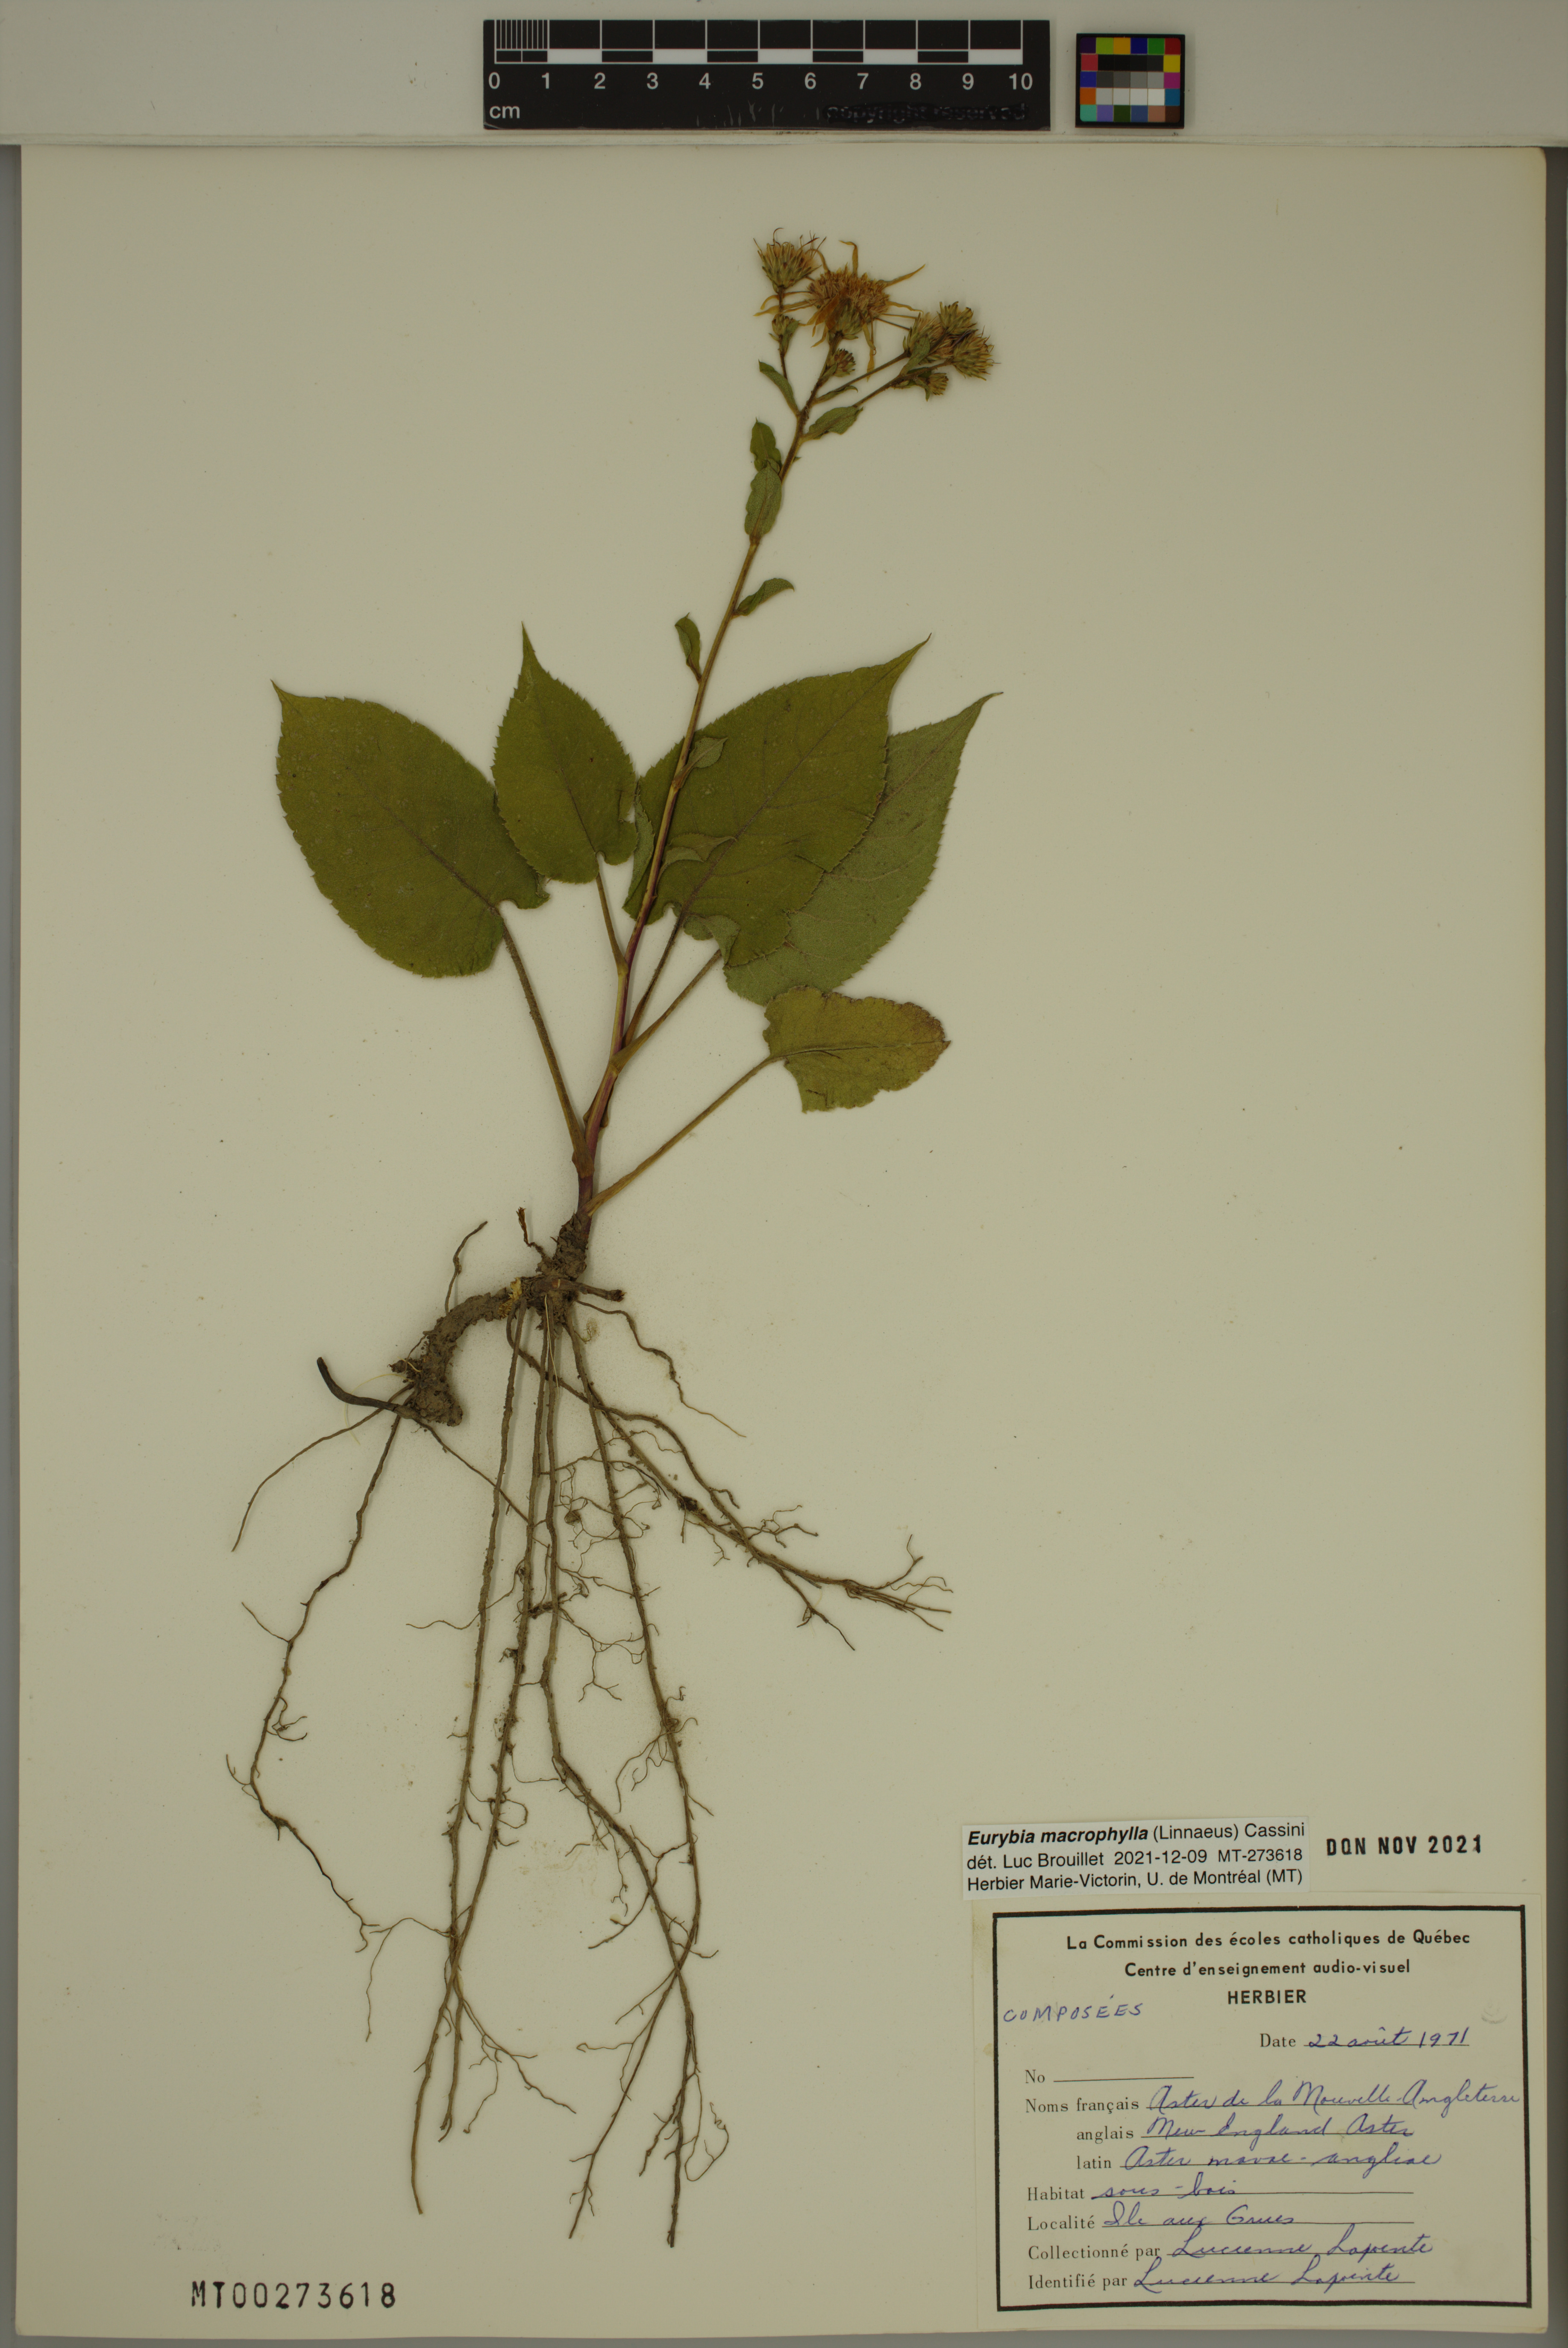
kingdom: Plantae
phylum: Tracheophyta
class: Magnoliopsida
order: Asterales
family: Asteraceae
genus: Eurybia
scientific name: Eurybia macrophylla
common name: Big-leaved aster
